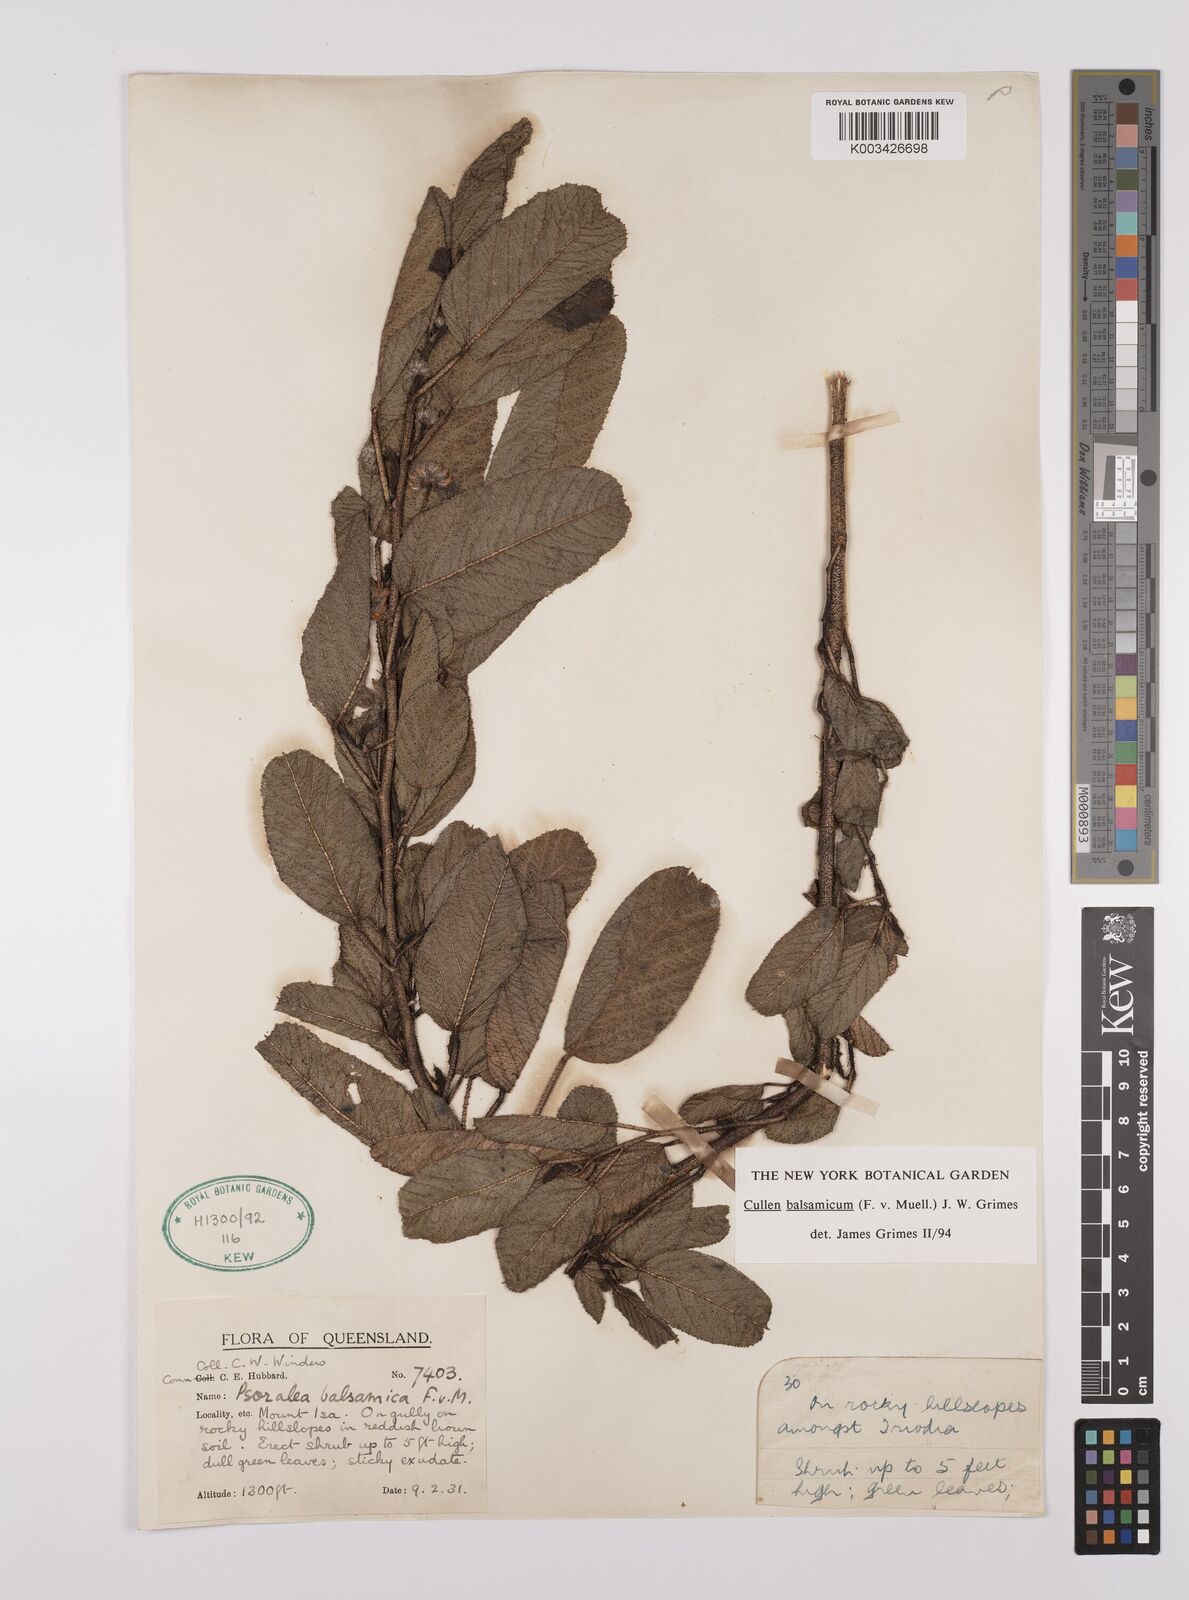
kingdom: Plantae
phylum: Tracheophyta
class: Magnoliopsida
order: Fabales
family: Fabaceae
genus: Cullen
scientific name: Cullen balsamicum
